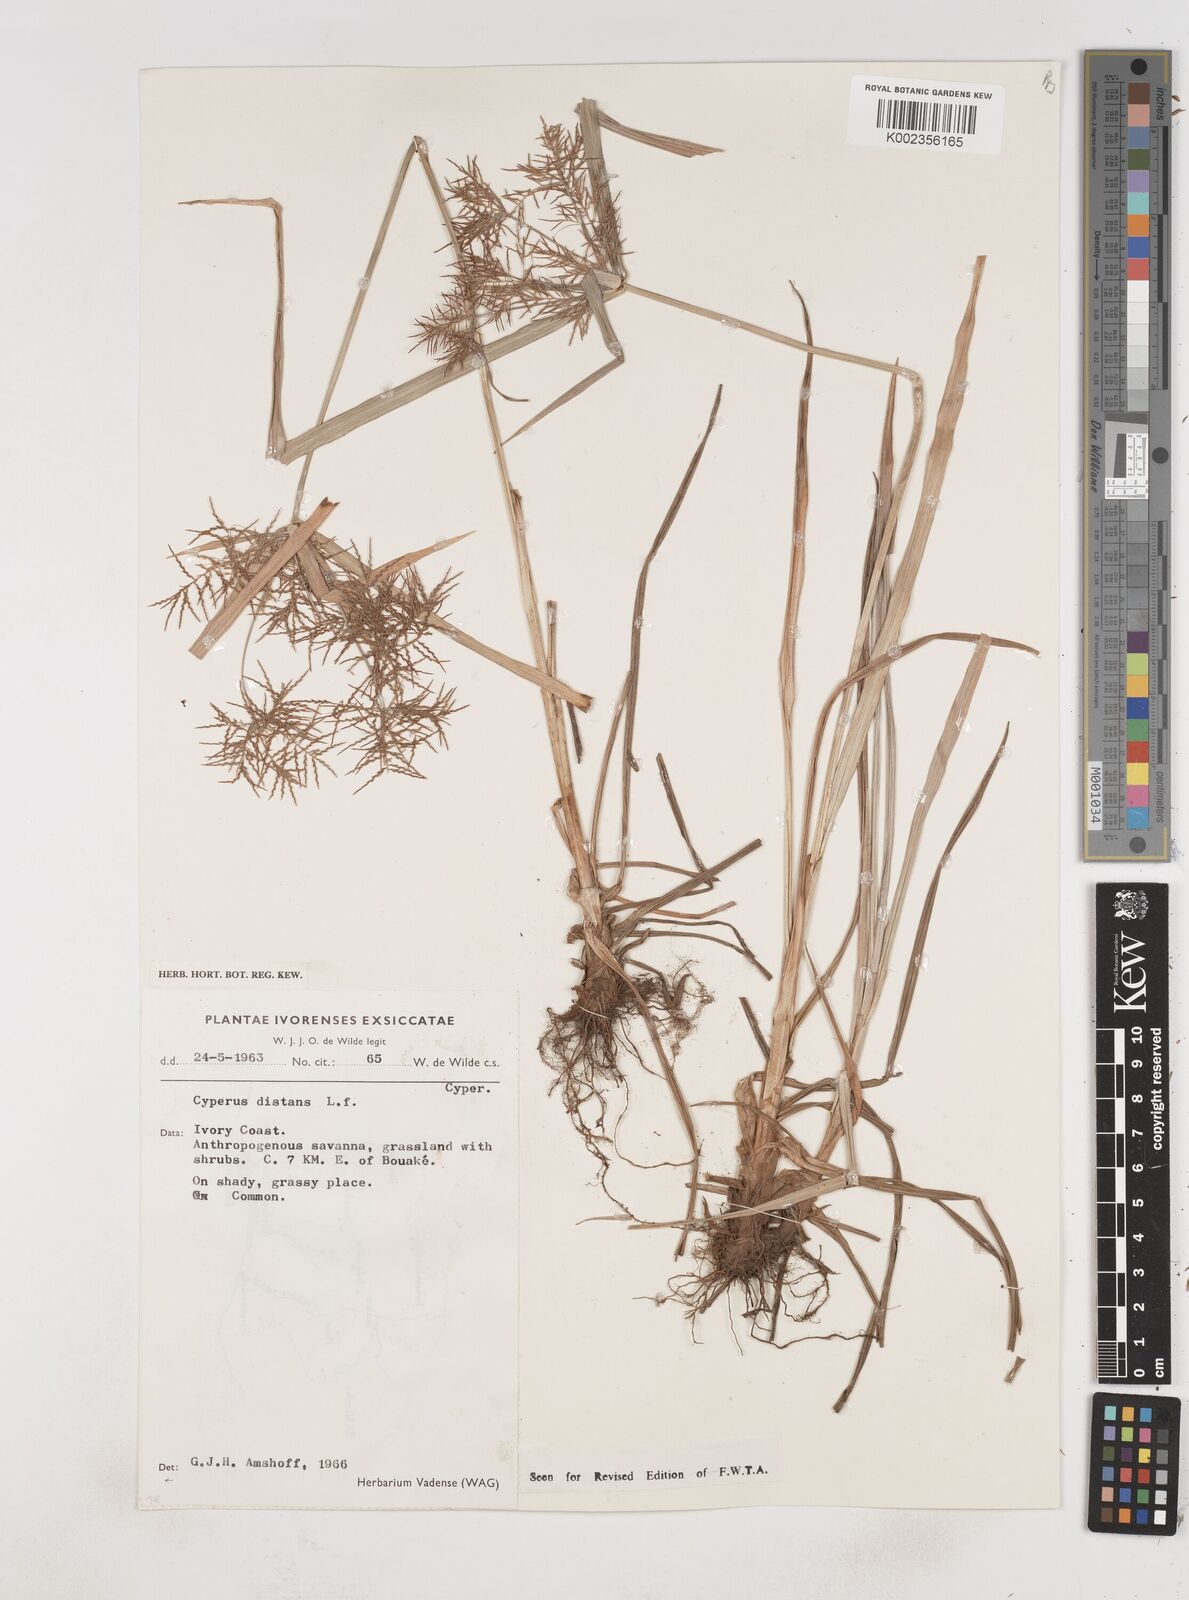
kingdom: Plantae
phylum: Tracheophyta
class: Liliopsida
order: Poales
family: Cyperaceae
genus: Cyperus
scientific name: Cyperus distans
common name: Slender cyperus
